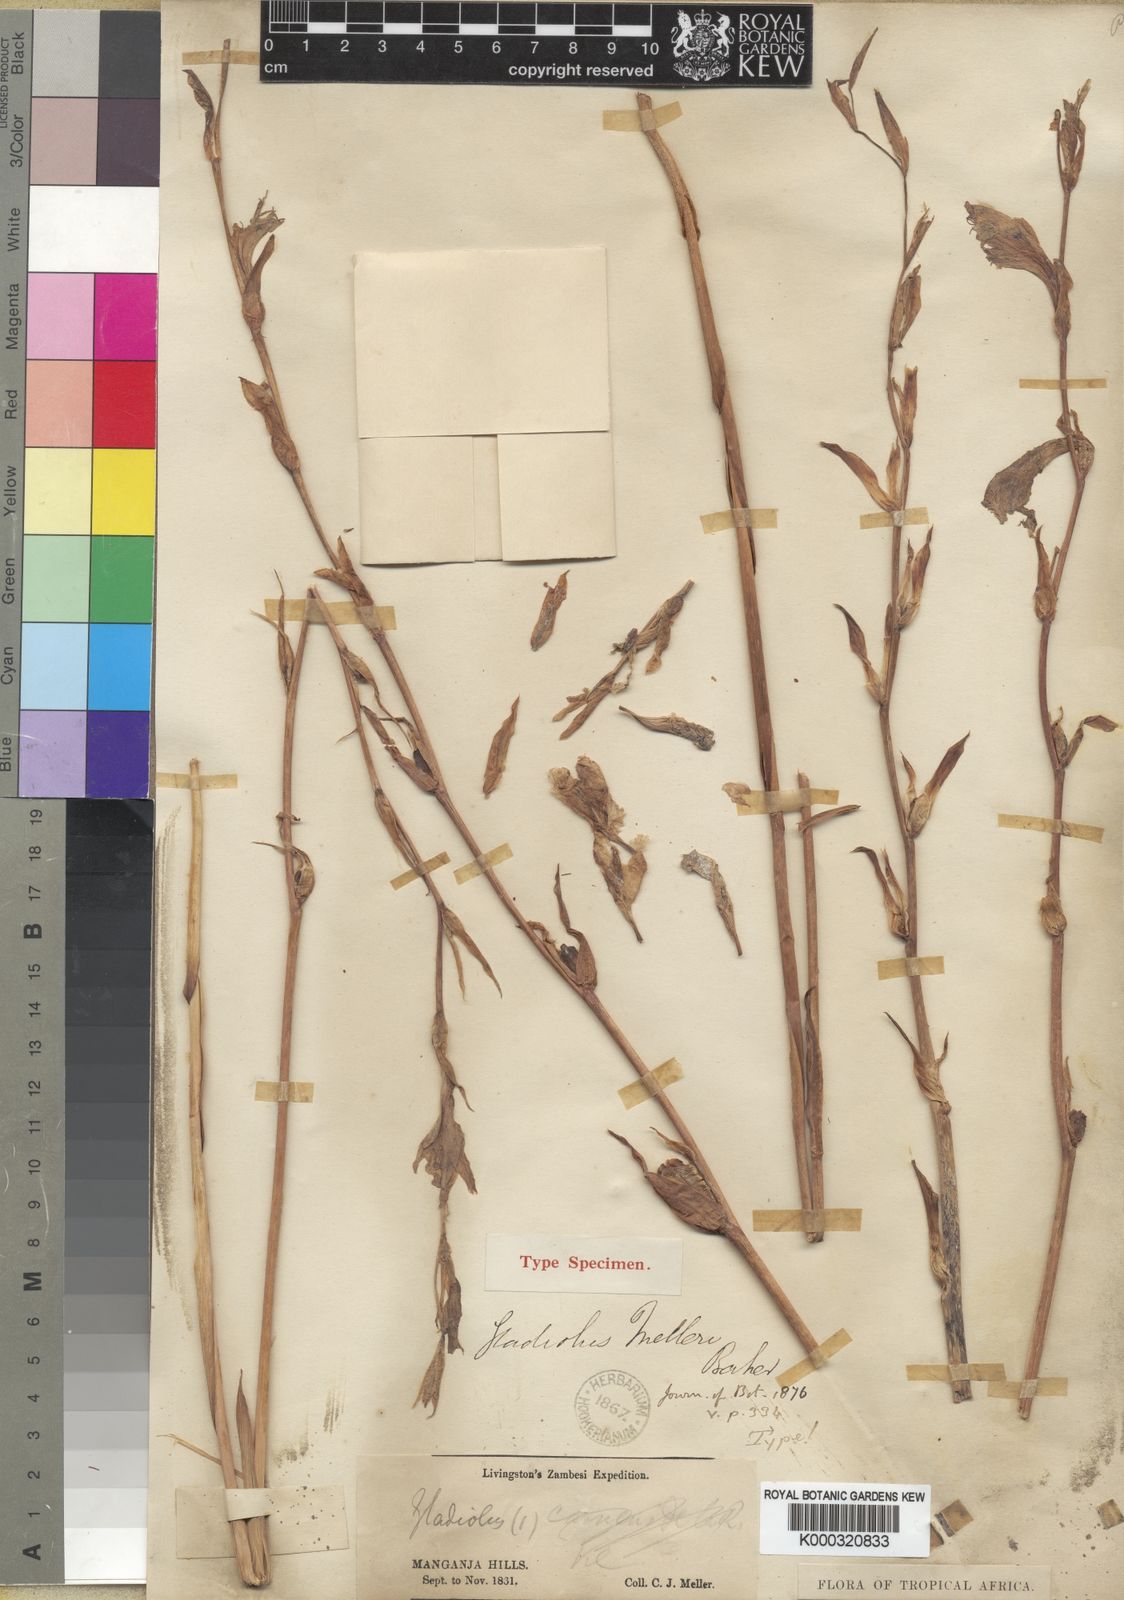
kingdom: Plantae
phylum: Tracheophyta
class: Liliopsida
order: Asparagales
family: Iridaceae
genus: Gladiolus
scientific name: Gladiolus melleri
